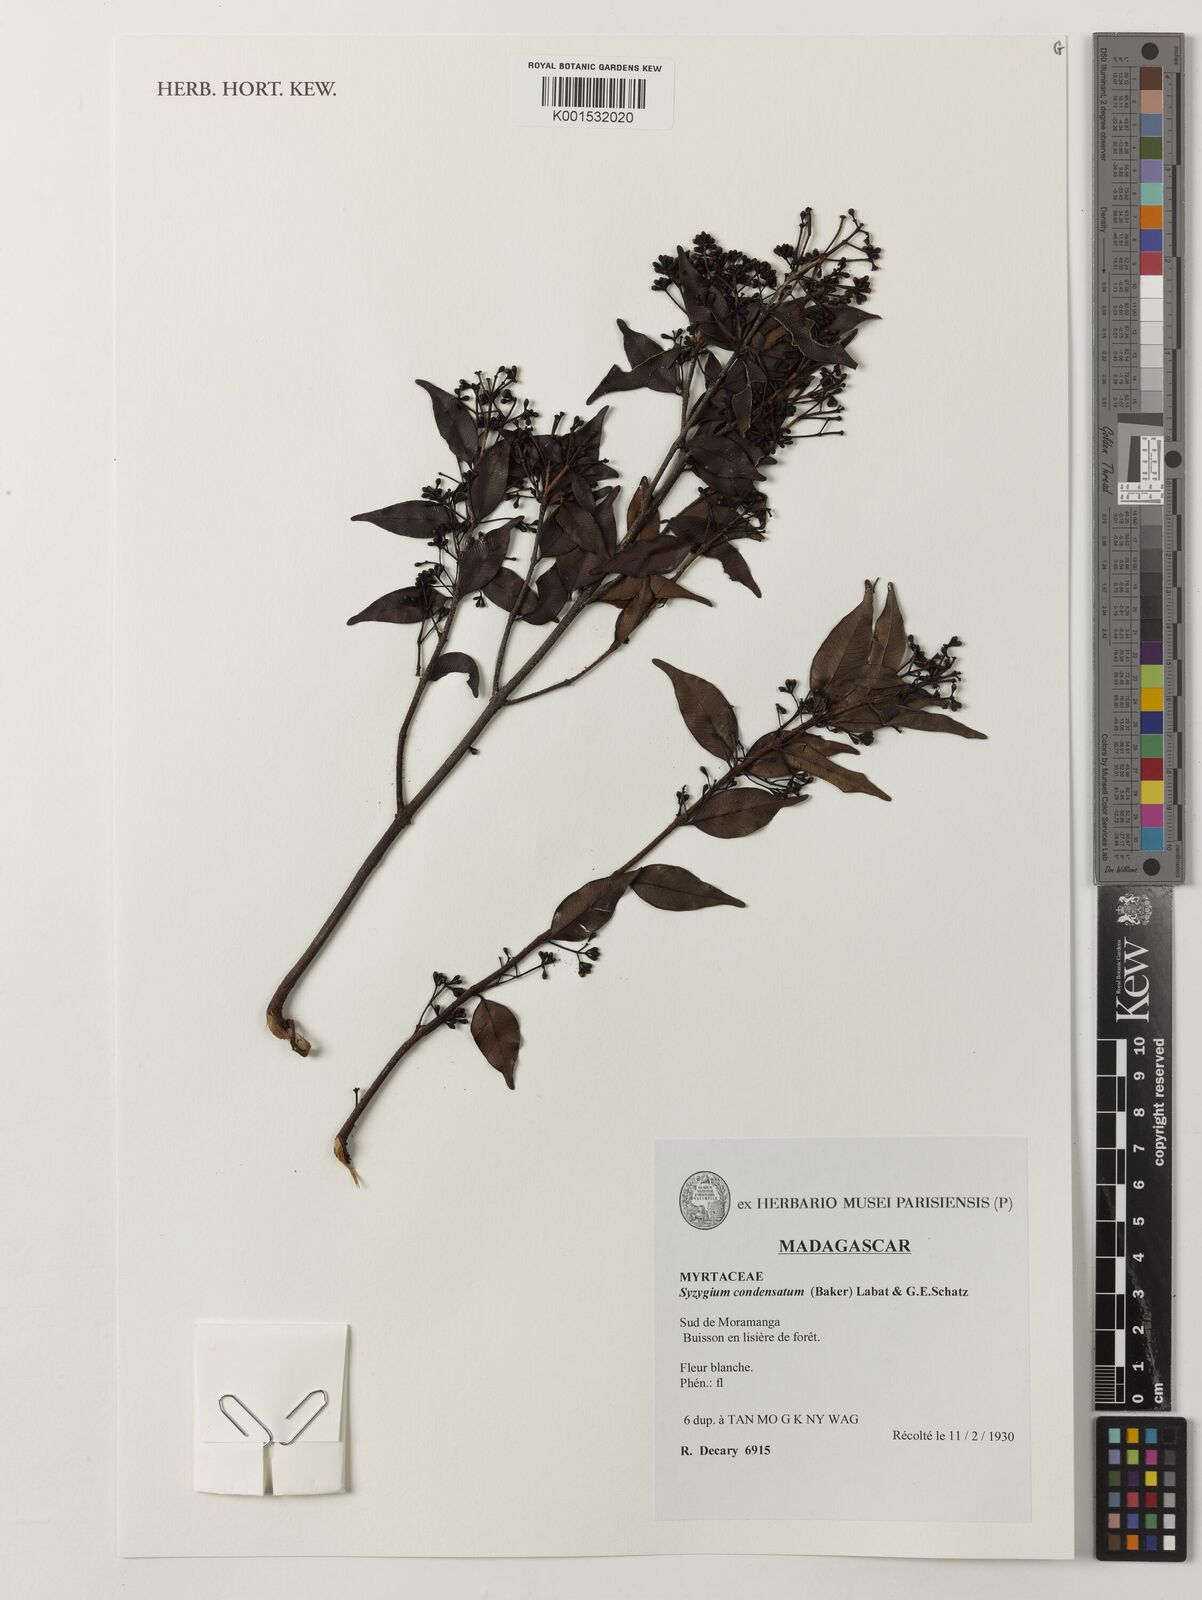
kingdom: Plantae
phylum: Tracheophyta
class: Magnoliopsida
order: Myrtales
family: Myrtaceae
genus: Syzygium
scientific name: Syzygium condensatum
